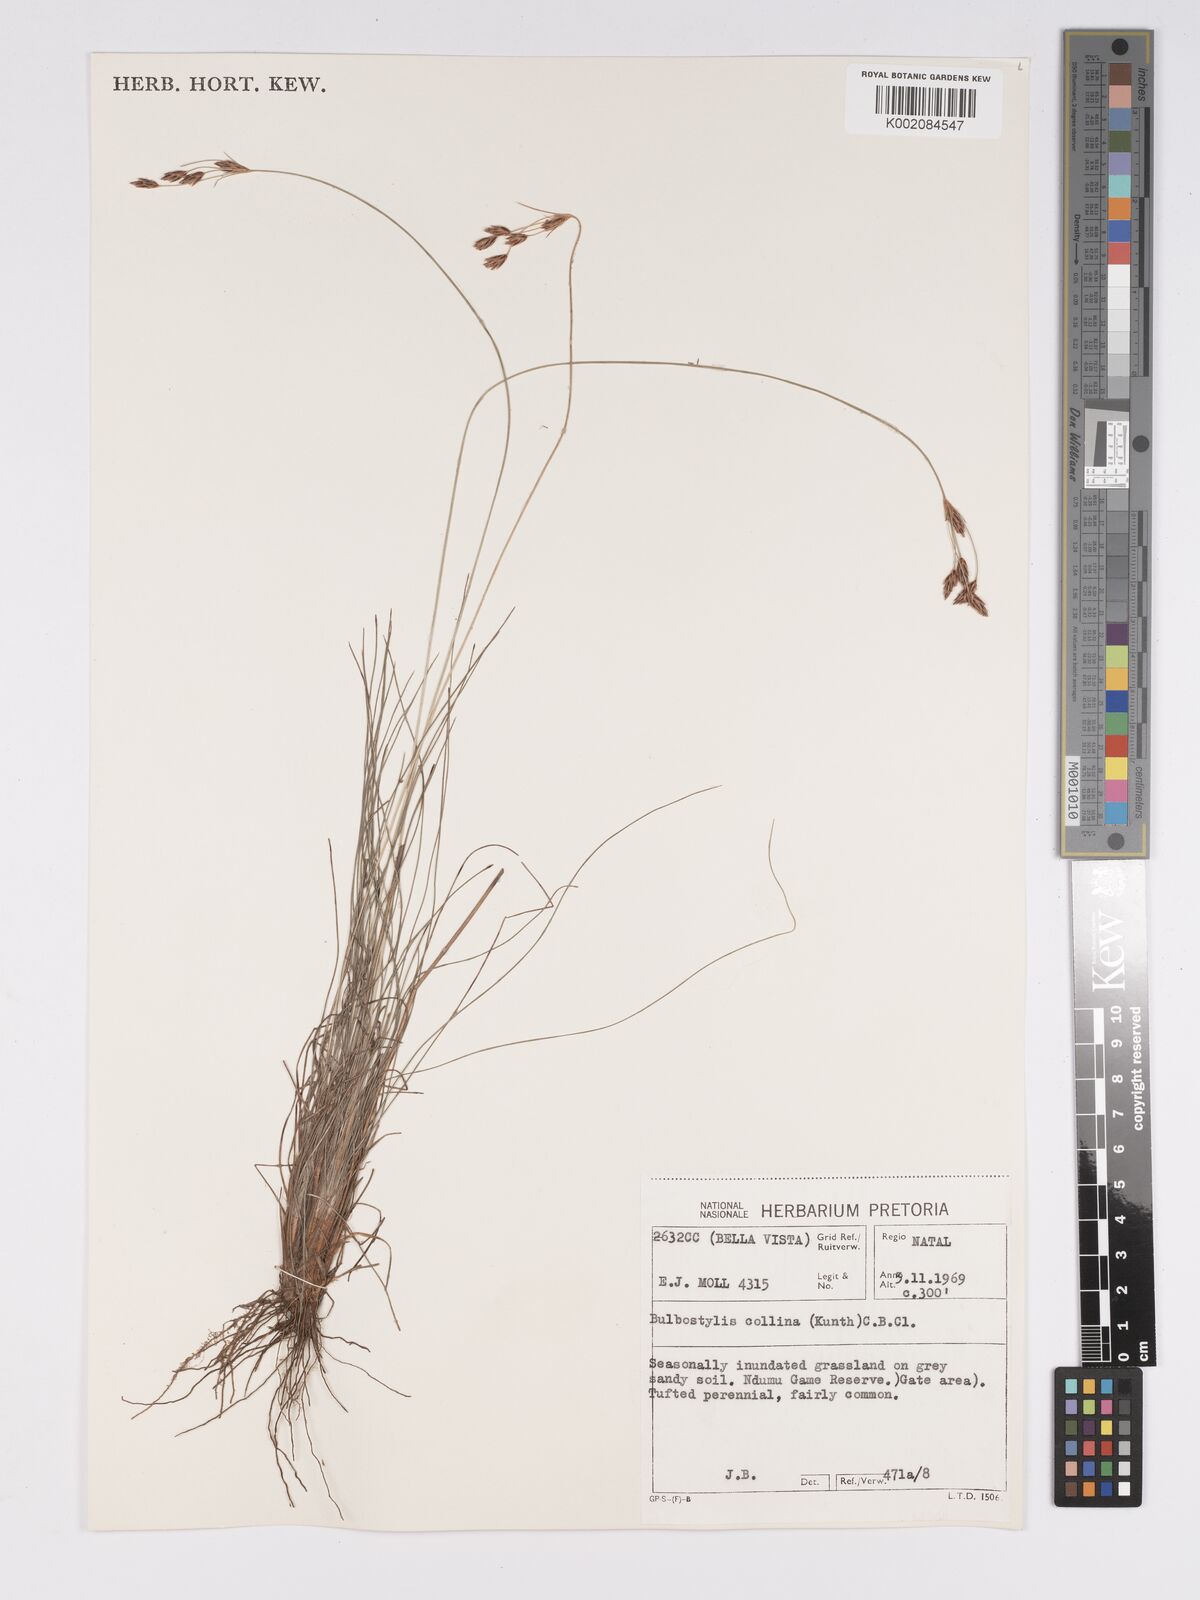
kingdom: Plantae
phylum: Tracheophyta
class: Liliopsida
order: Poales
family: Cyperaceae
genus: Bulbostylis
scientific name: Bulbostylis contexta
